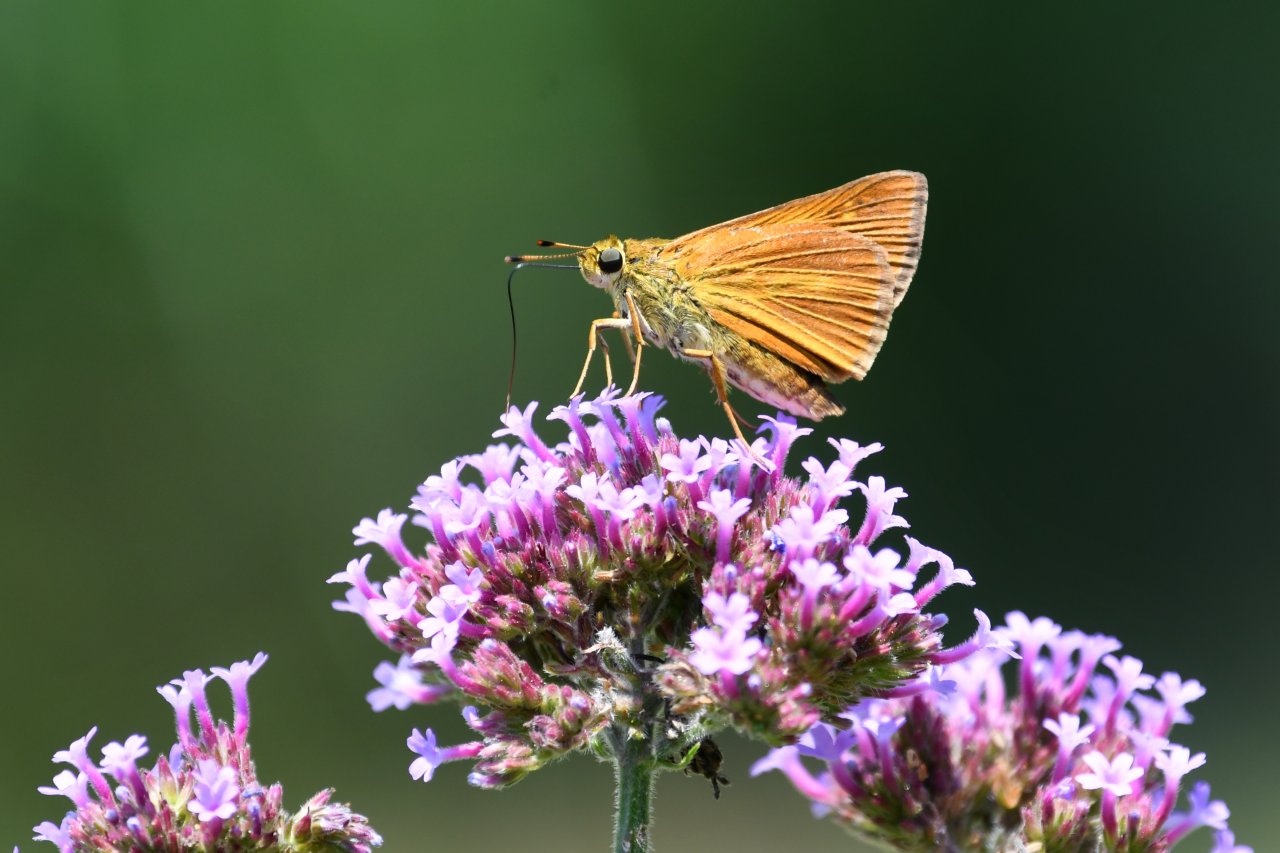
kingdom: Animalia
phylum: Arthropoda
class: Insecta
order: Lepidoptera
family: Hesperiidae
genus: Euphyes
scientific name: Euphyes dion
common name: Dion Skipper
